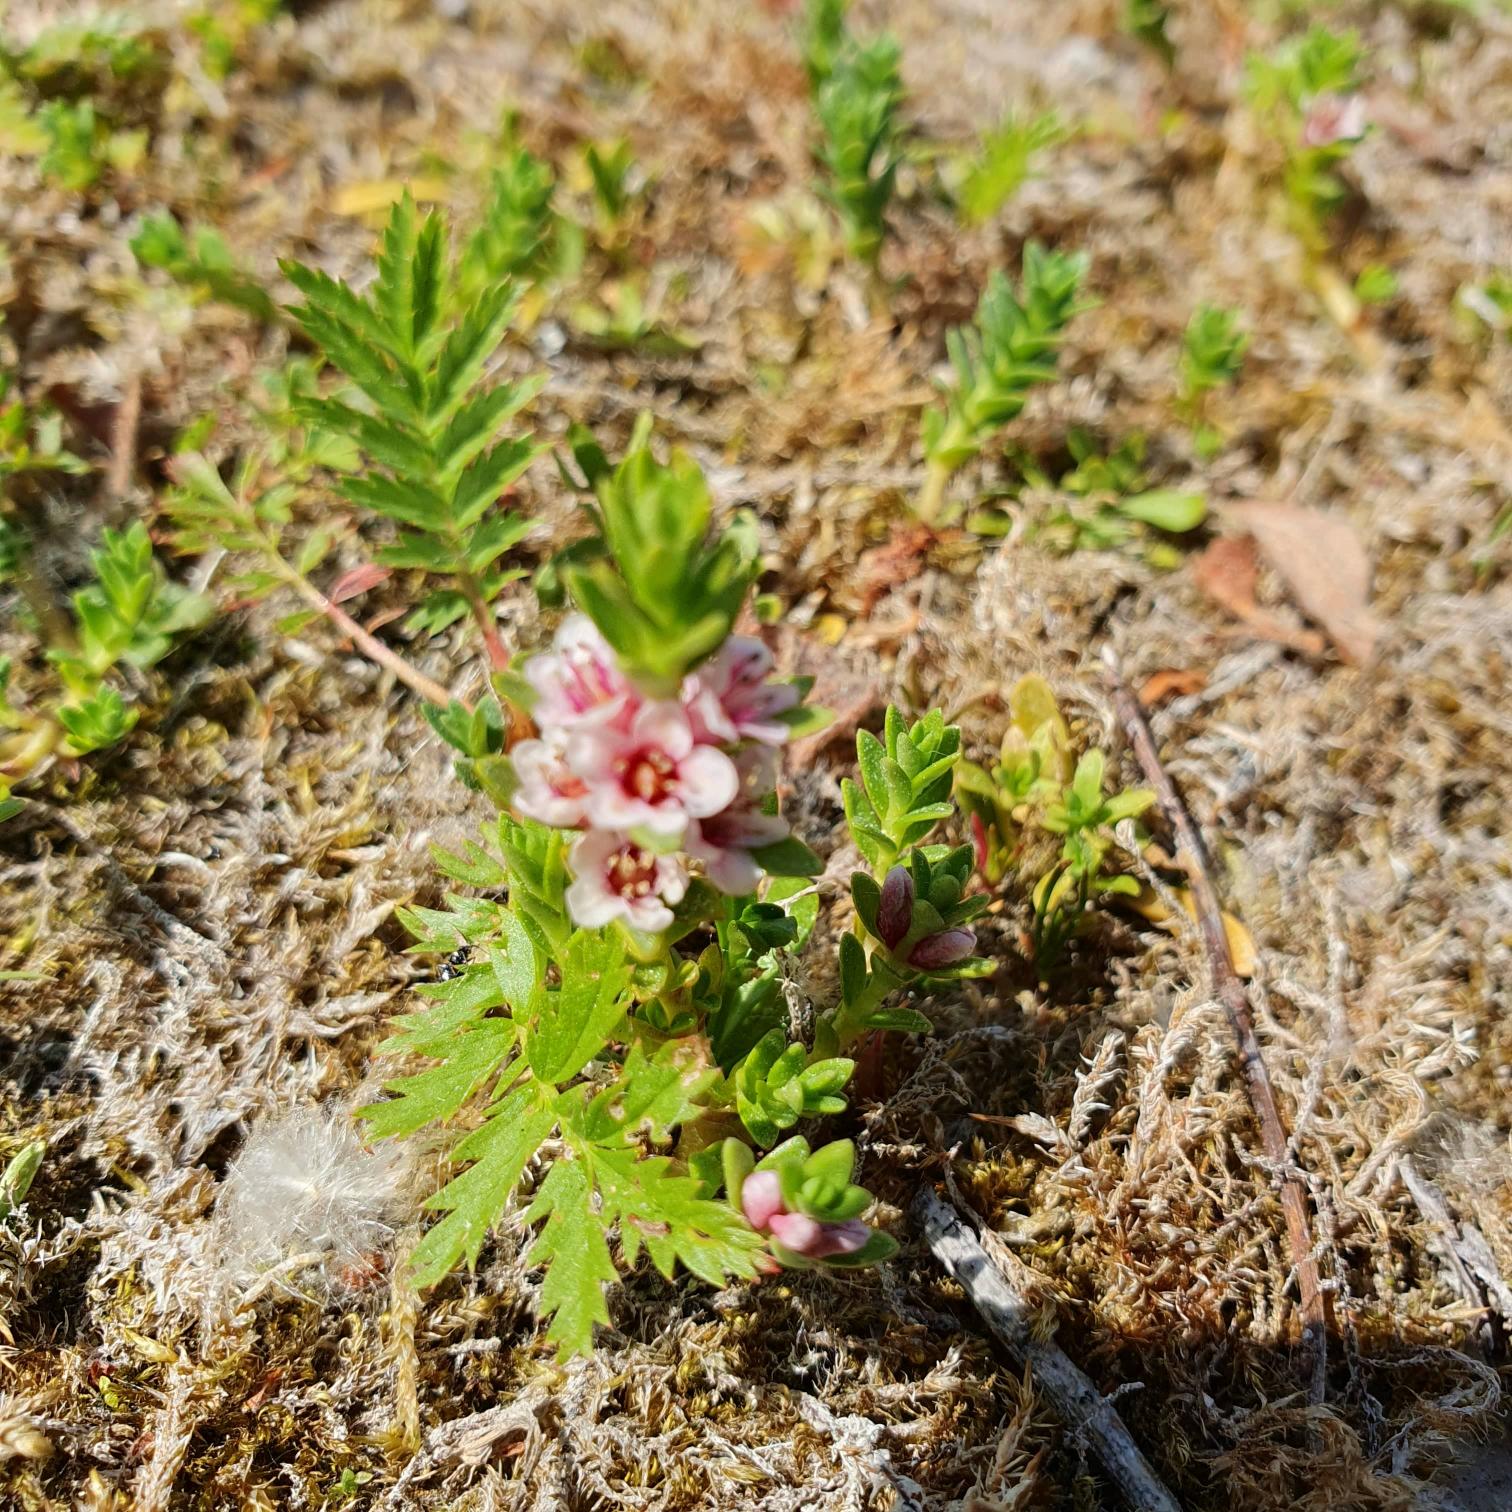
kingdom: Plantae
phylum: Tracheophyta
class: Magnoliopsida
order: Ericales
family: Primulaceae
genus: Lysimachia
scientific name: Lysimachia maritima
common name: Sandkryb
